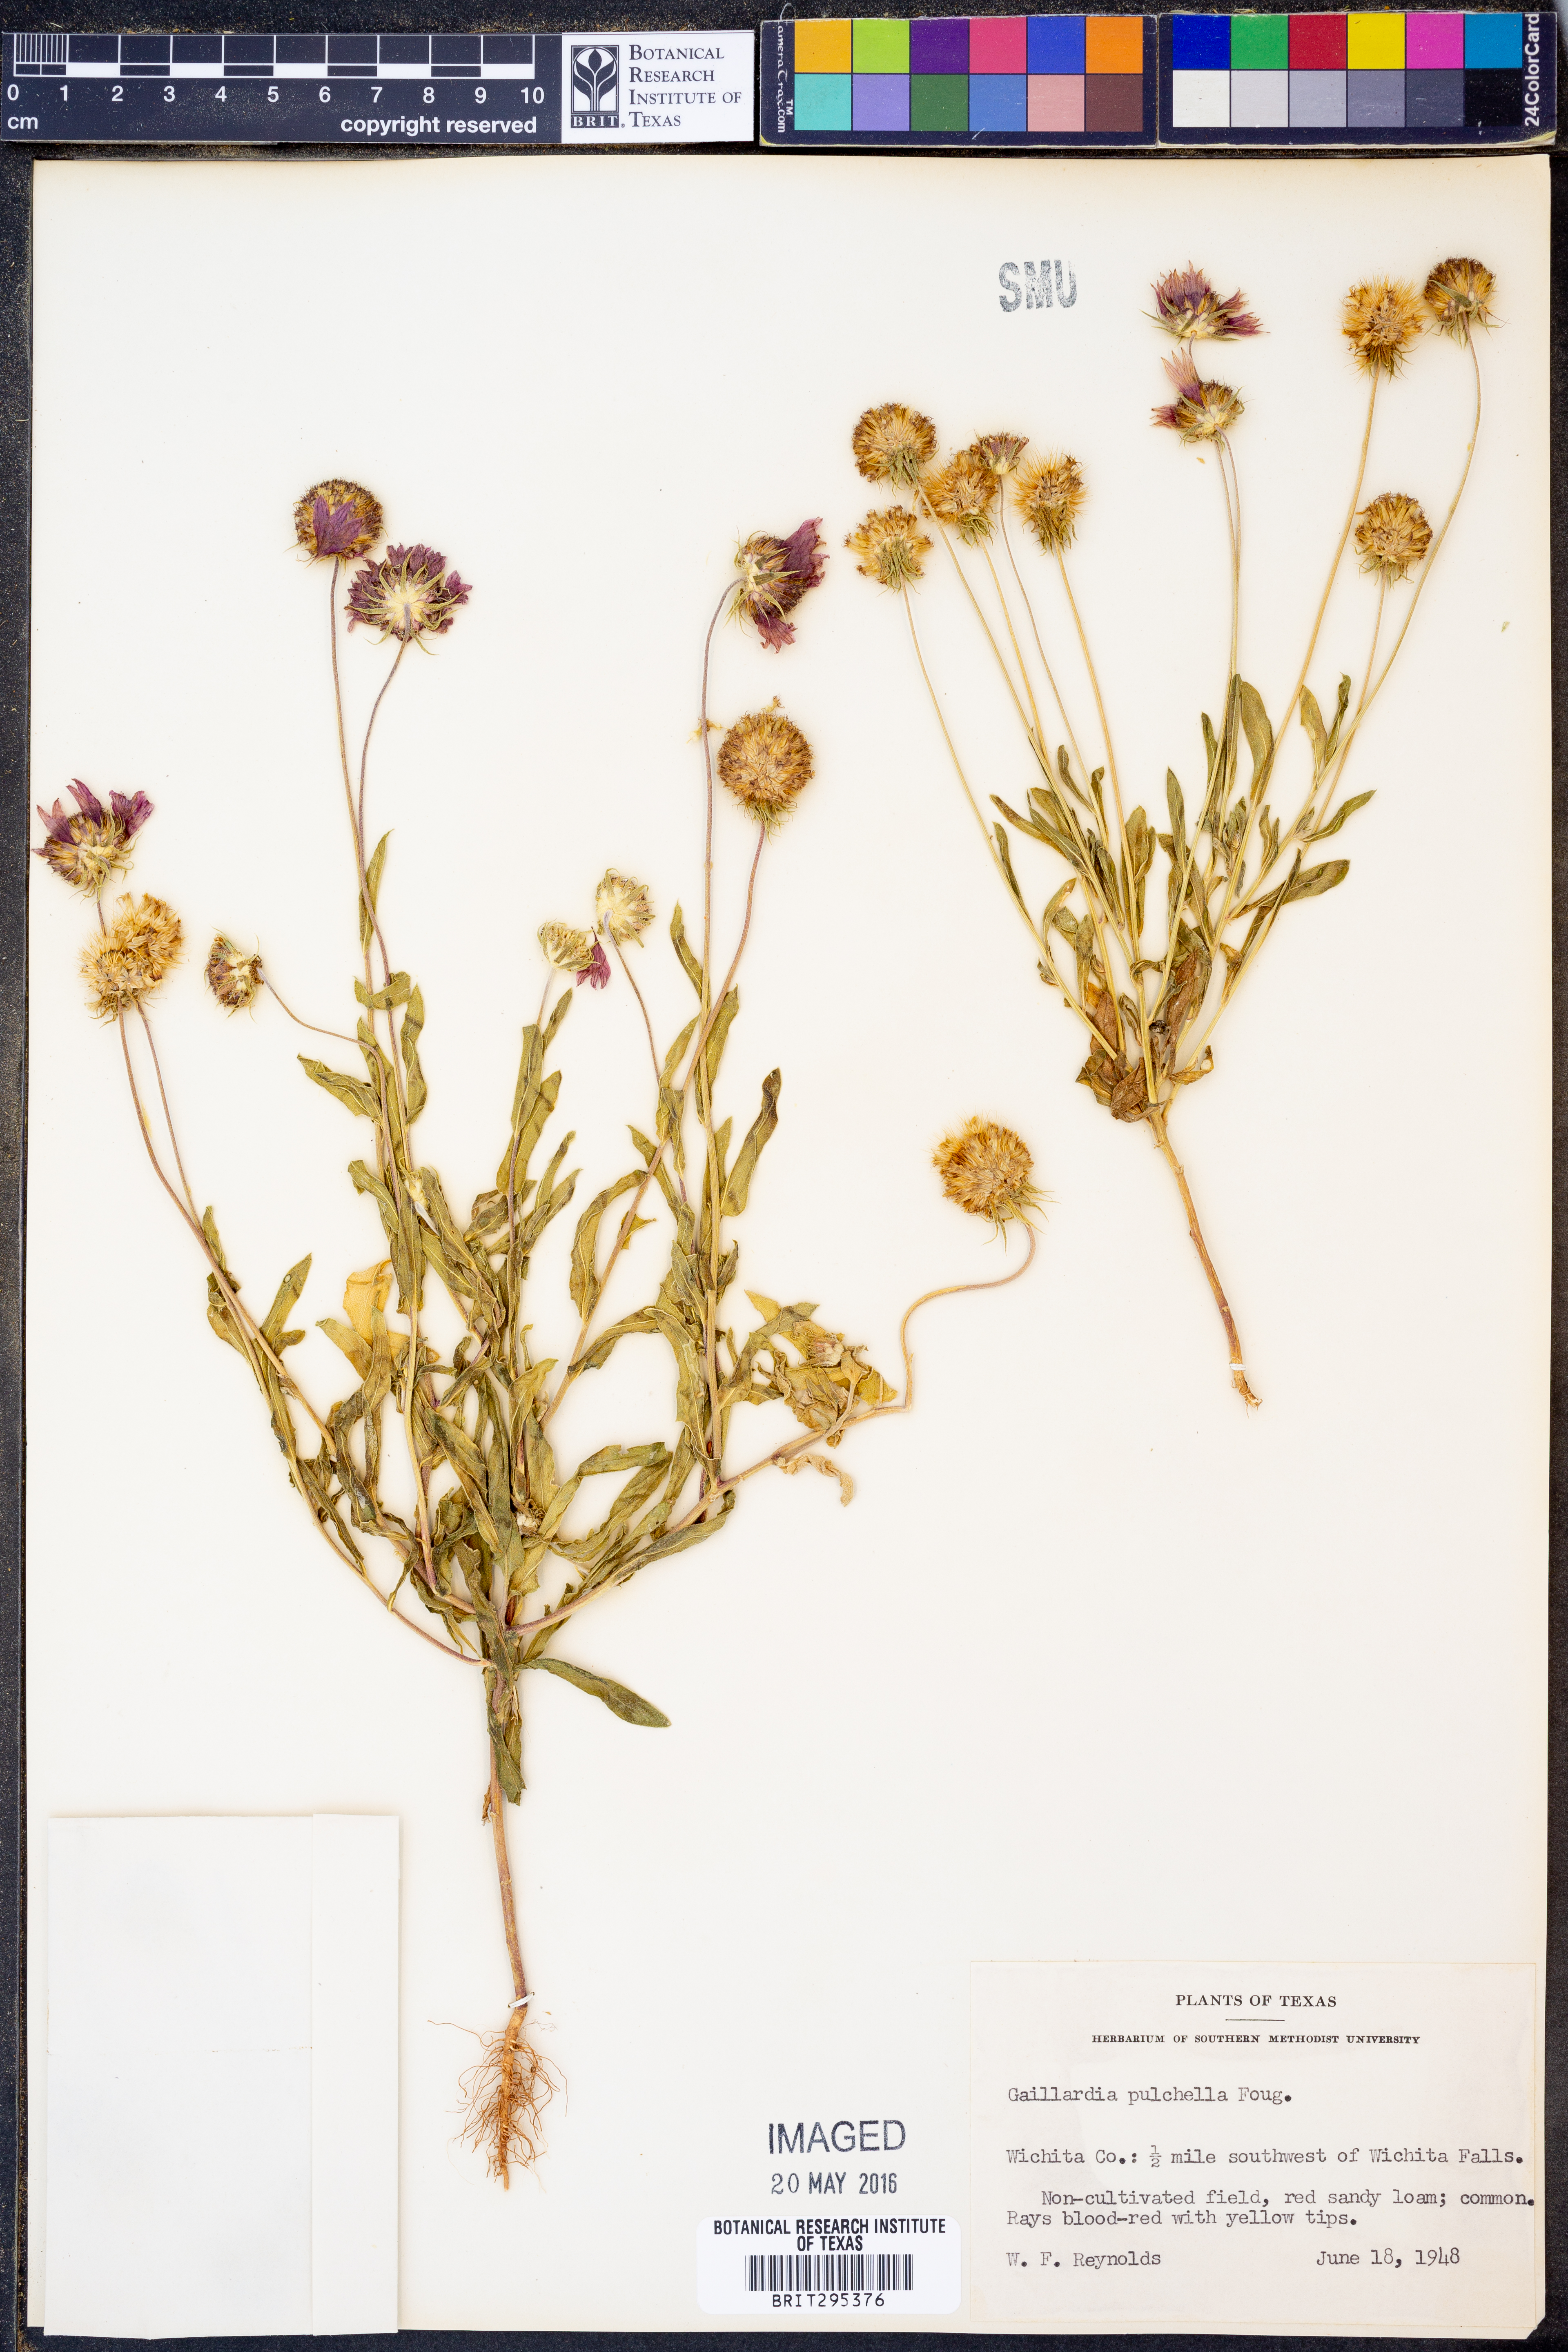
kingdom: Plantae
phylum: Tracheophyta
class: Magnoliopsida
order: Asterales
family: Asteraceae
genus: Gaillardia
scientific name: Gaillardia pulchella
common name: Firewheel
